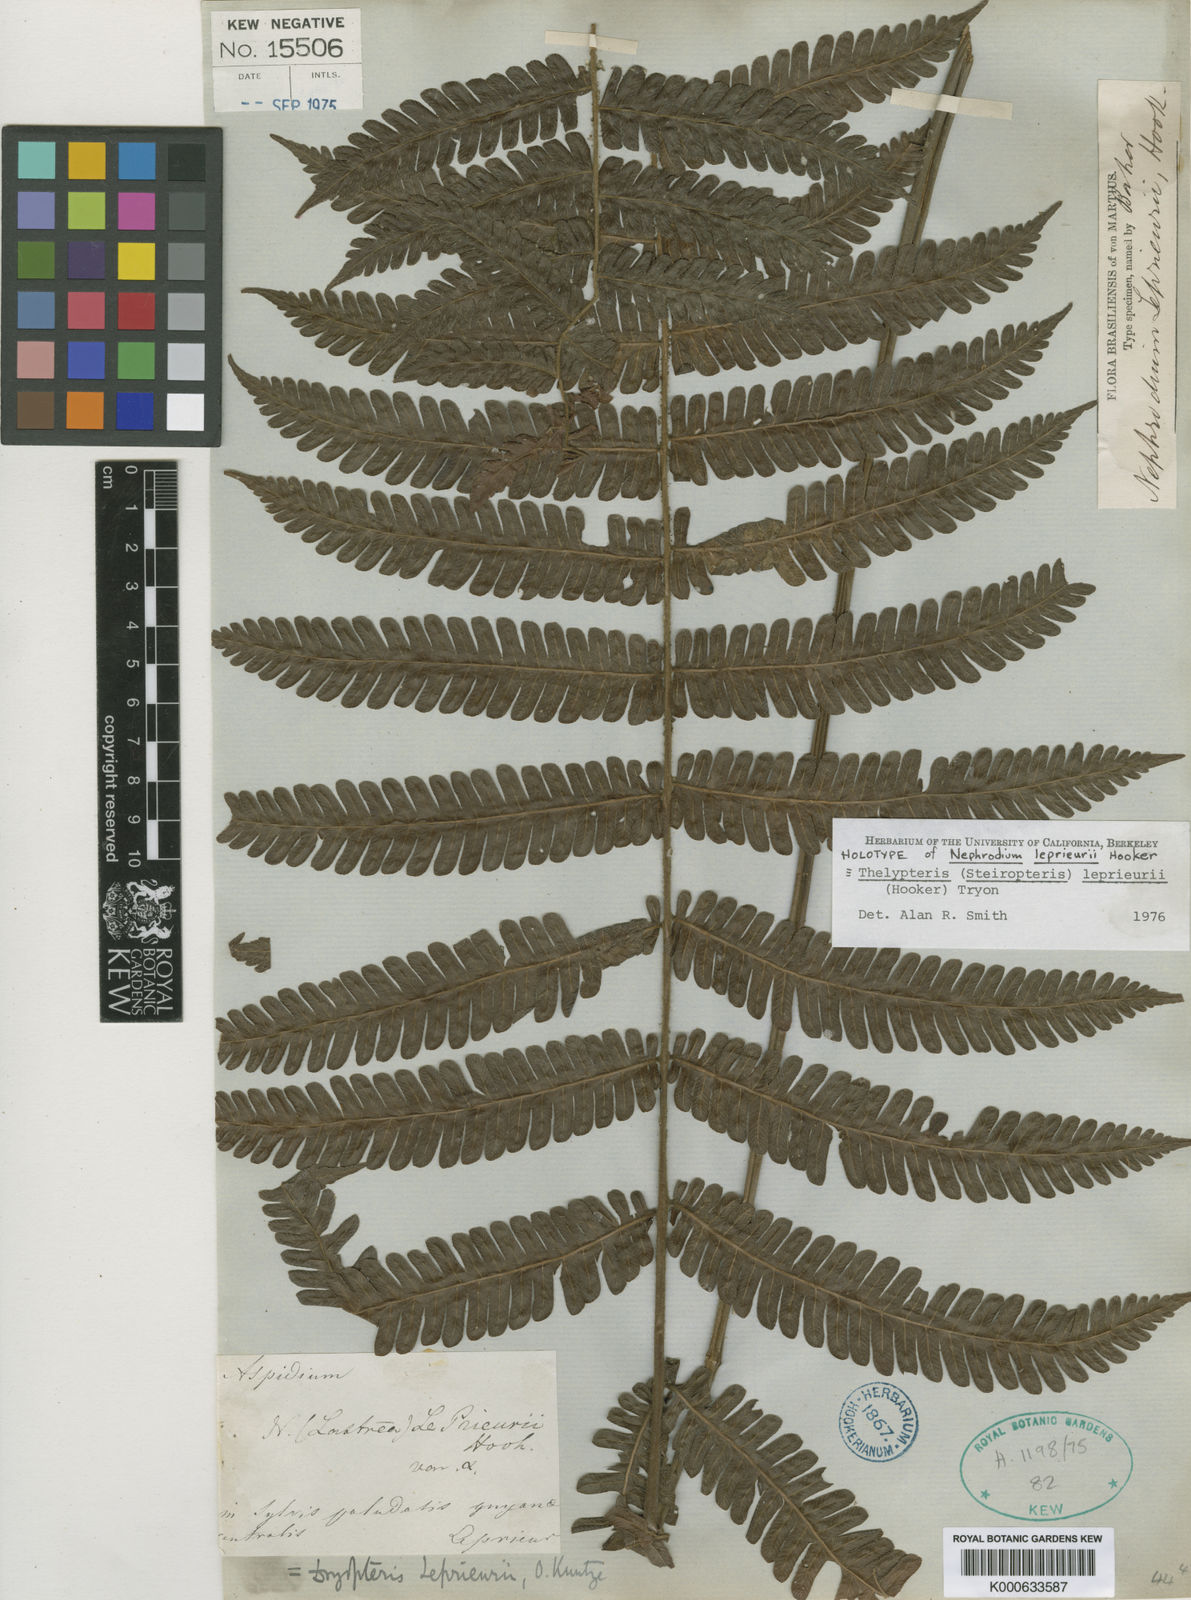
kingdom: Plantae
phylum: Tracheophyta
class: Polypodiopsida
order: Polypodiales
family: Thelypteridaceae
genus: Steiropteris
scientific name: Steiropteris leprieurii
